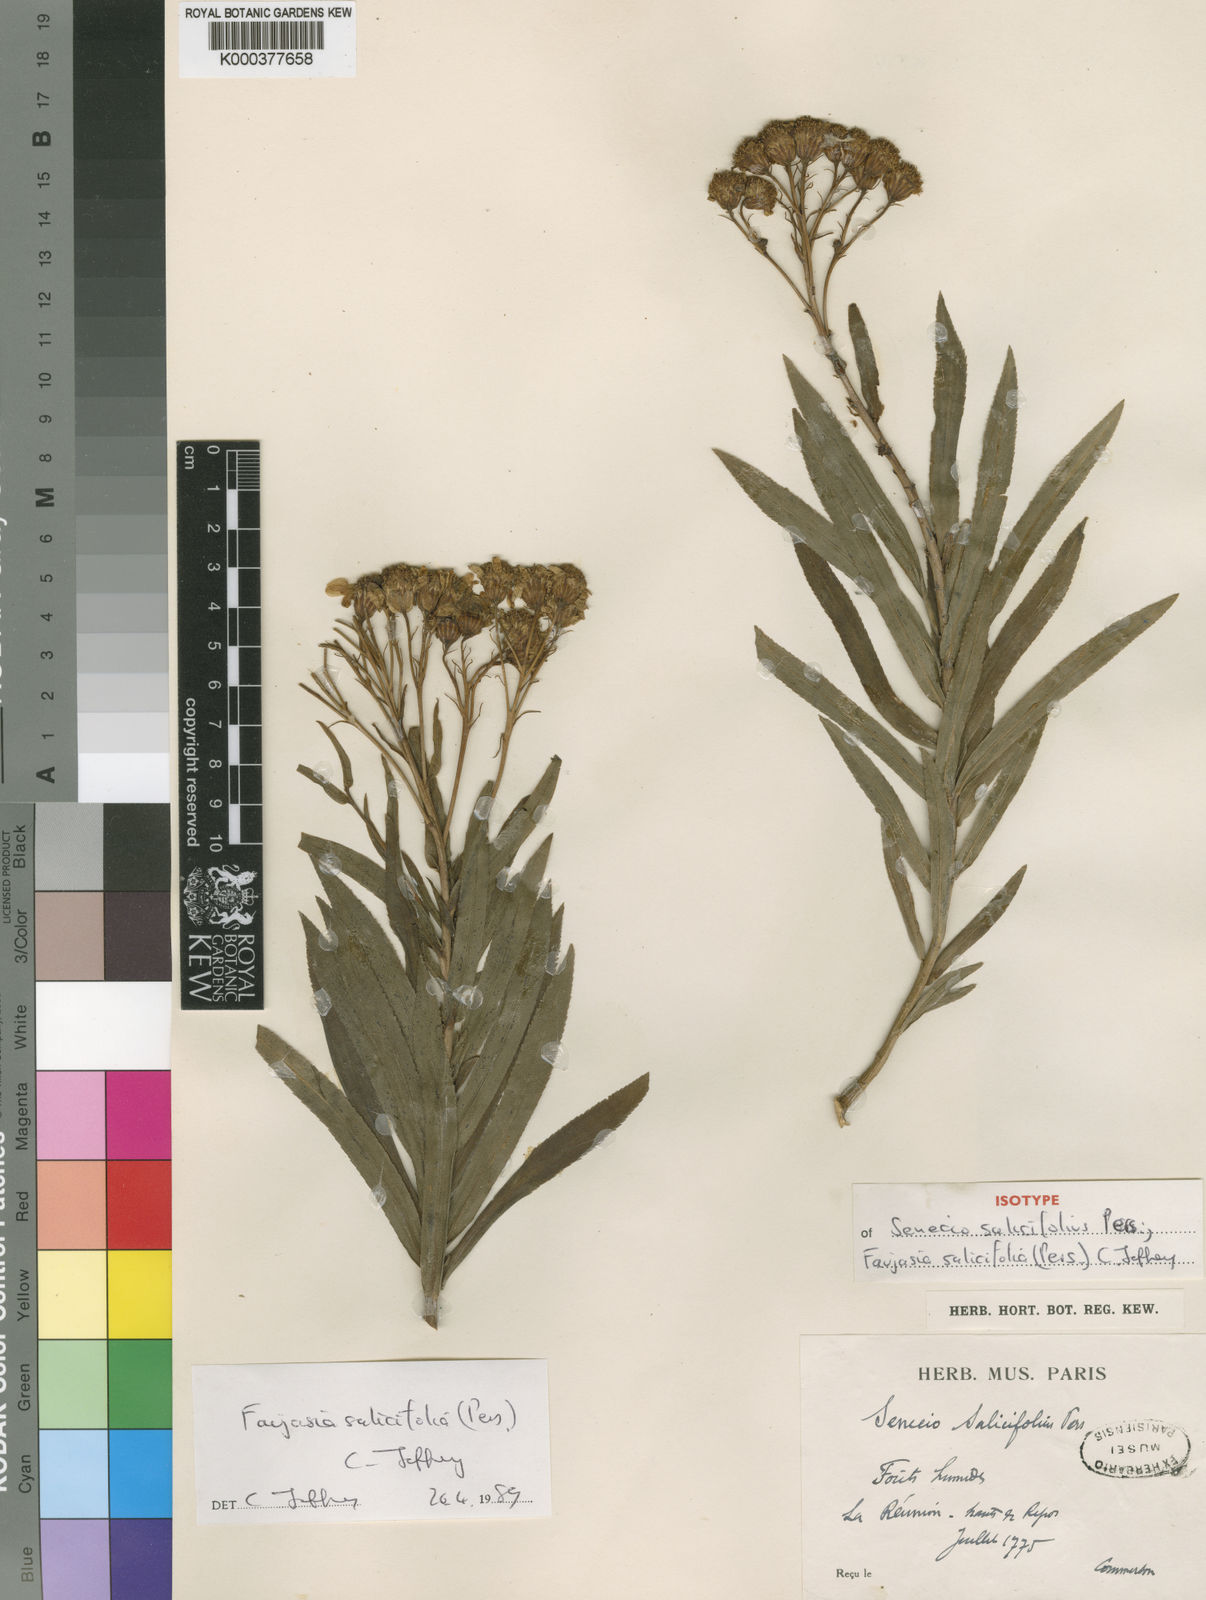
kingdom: Plantae
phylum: Tracheophyta
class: Magnoliopsida
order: Asterales
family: Asteraceae
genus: Faujasia
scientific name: Faujasia salicifolia
